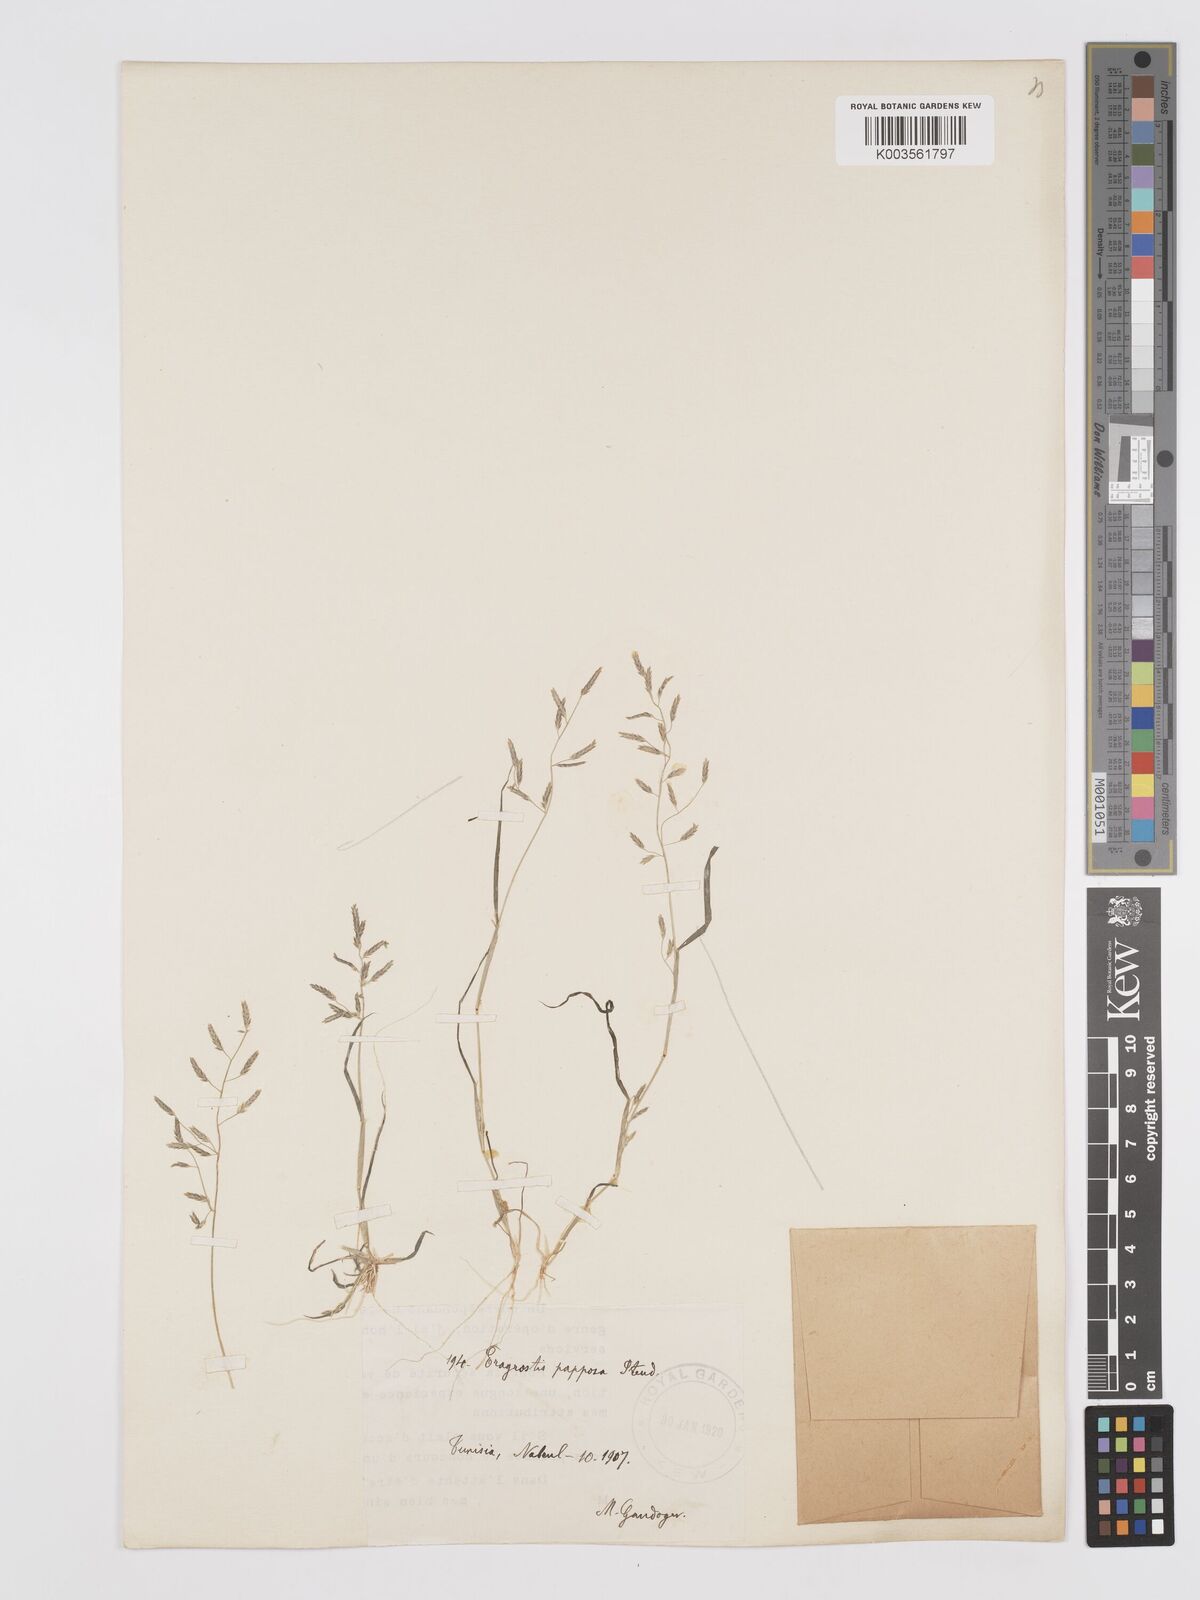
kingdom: Plantae
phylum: Tracheophyta
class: Liliopsida
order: Poales
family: Poaceae
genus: Eragrostis
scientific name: Eragrostis barrelieri
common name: Mediterranean lovegrass
